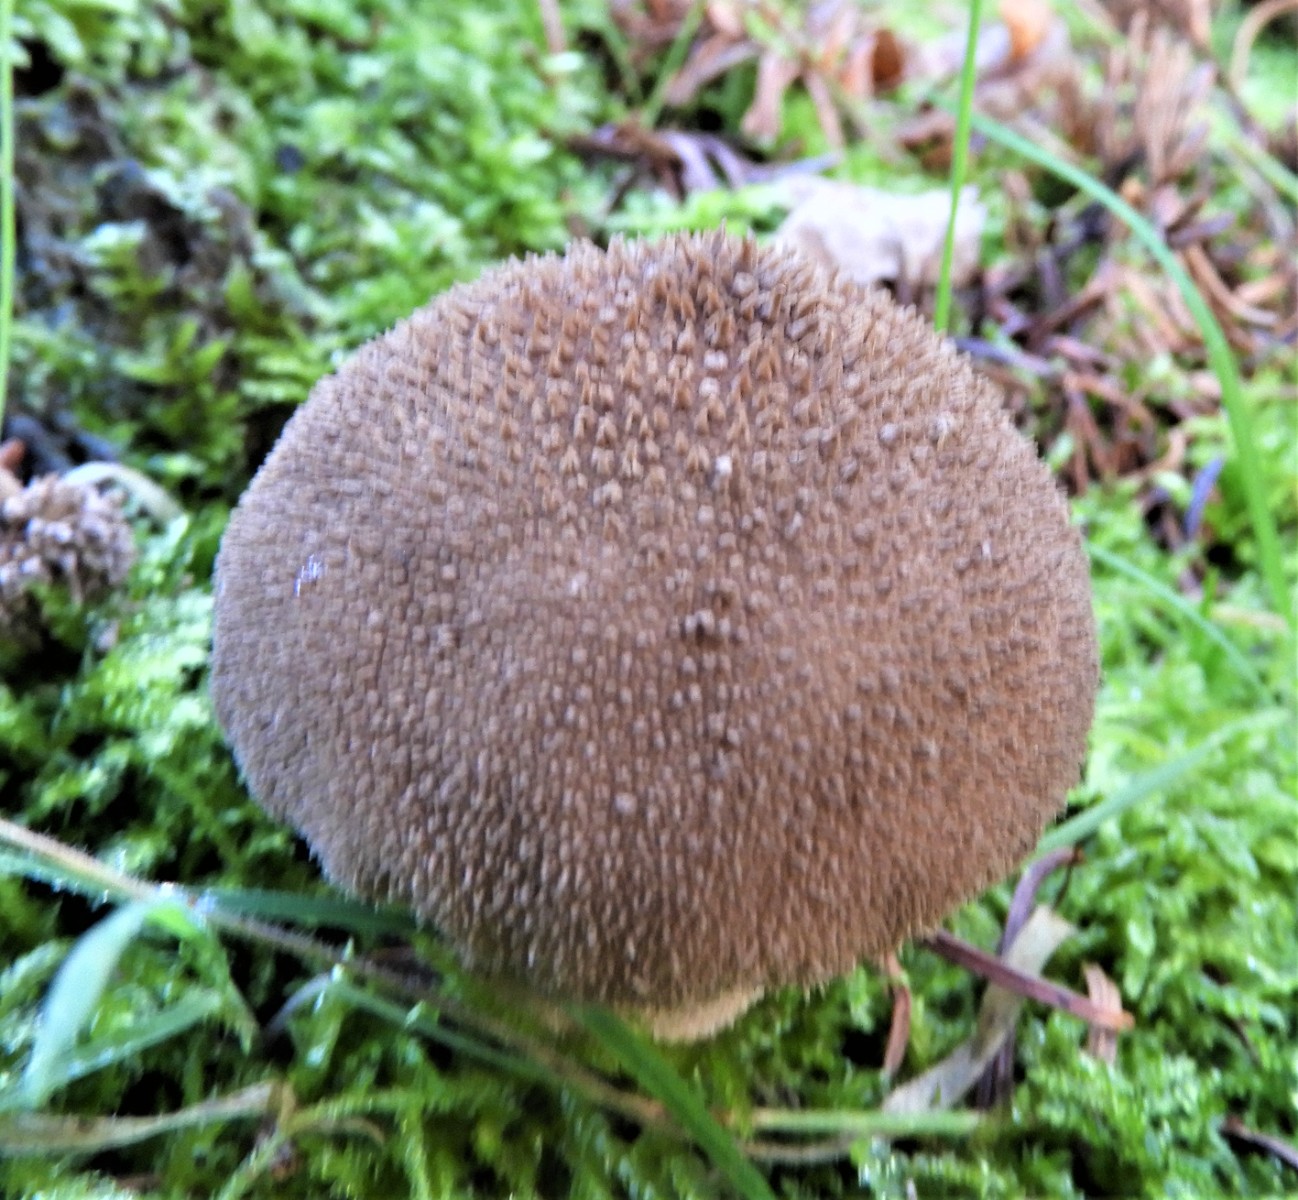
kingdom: Fungi
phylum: Basidiomycota
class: Agaricomycetes
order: Agaricales
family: Lycoperdaceae
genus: Lycoperdon
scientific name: Lycoperdon nigrescens
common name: sortagtig støvbold
